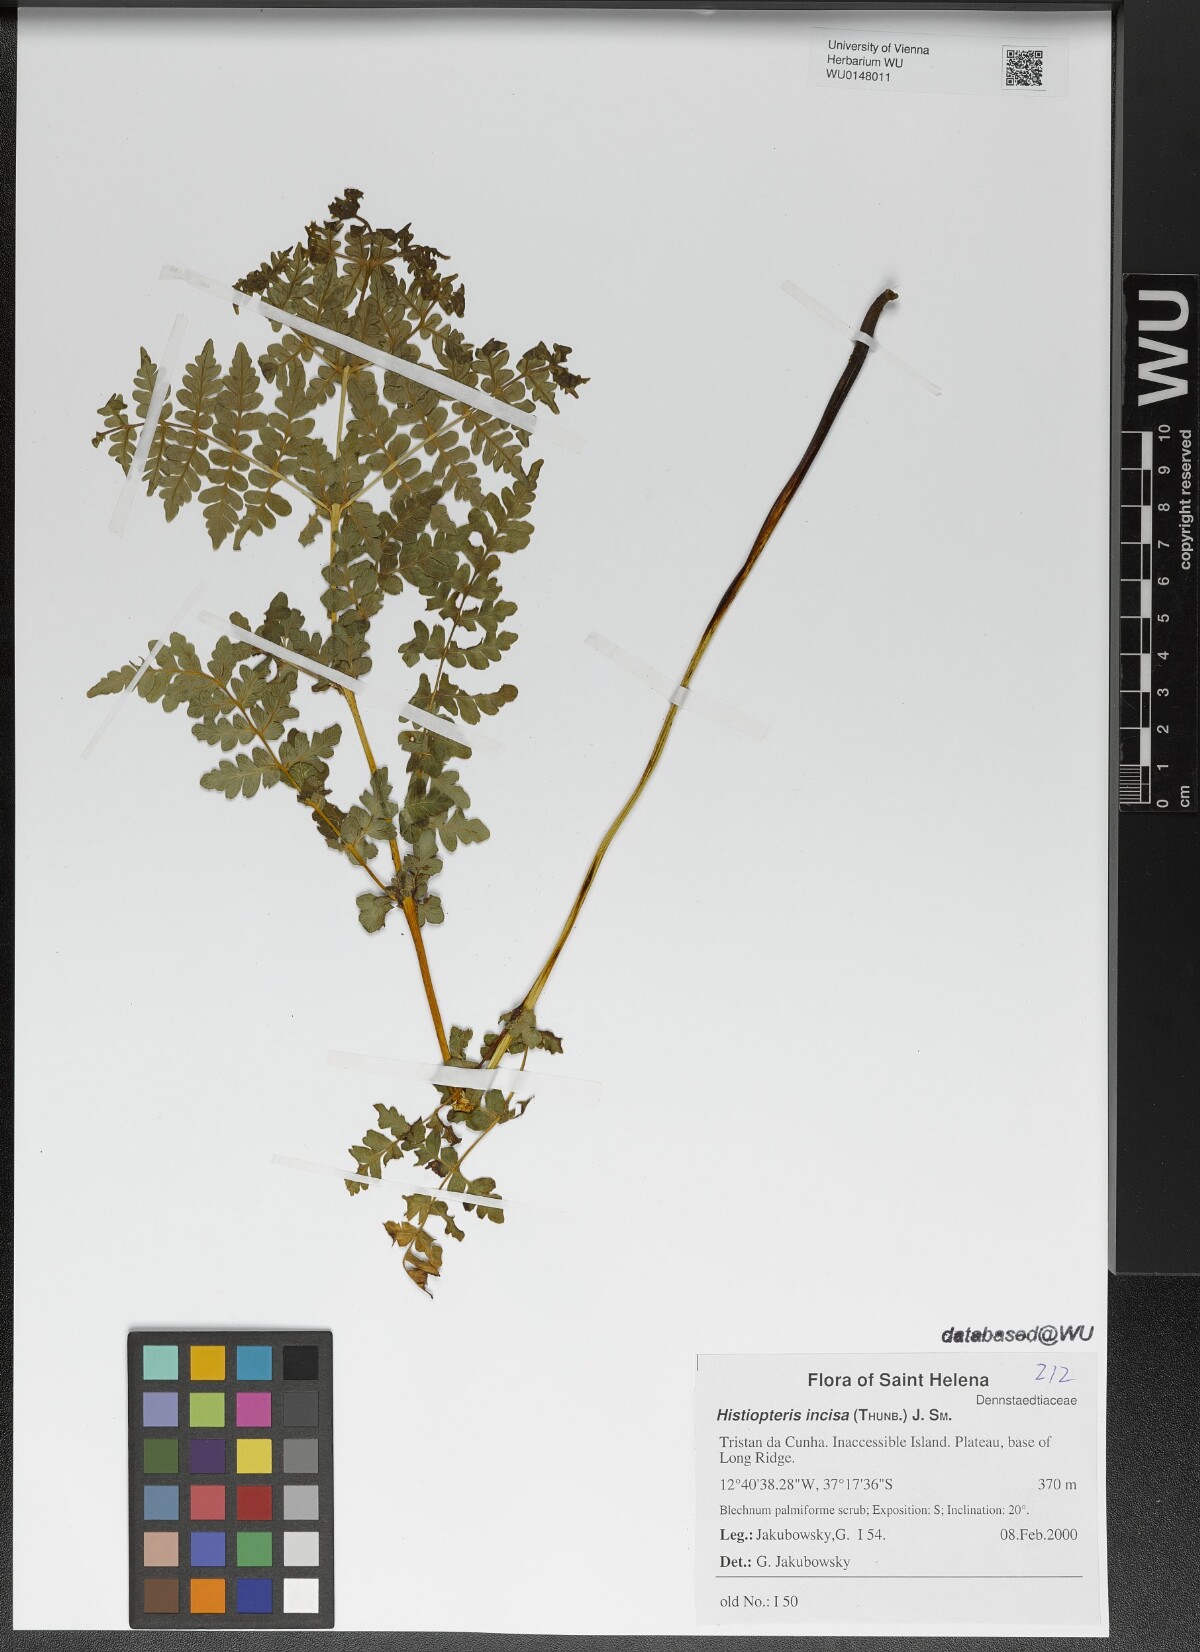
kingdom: Plantae
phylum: Tracheophyta
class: Polypodiopsida
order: Polypodiales
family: Dennstaedtiaceae
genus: Histiopteris
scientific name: Histiopteris incisa
